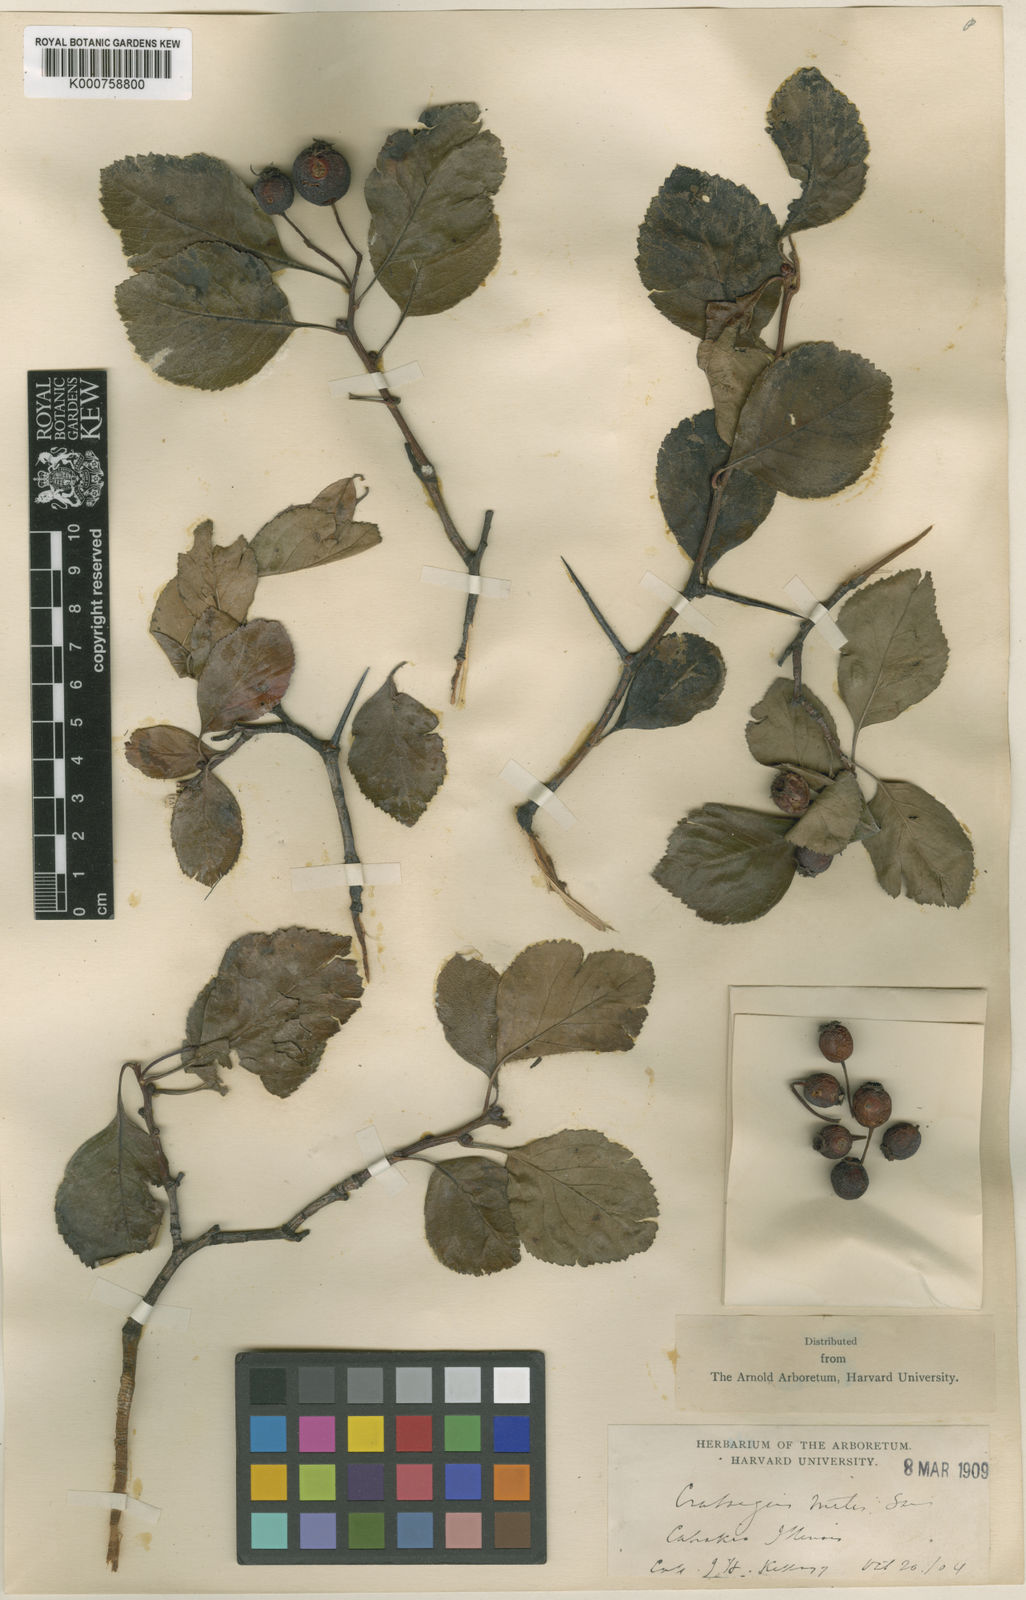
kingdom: Plantae
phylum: Tracheophyta
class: Magnoliopsida
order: Rosales
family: Rosaceae
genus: Crataegus
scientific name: Crataegus mitis
